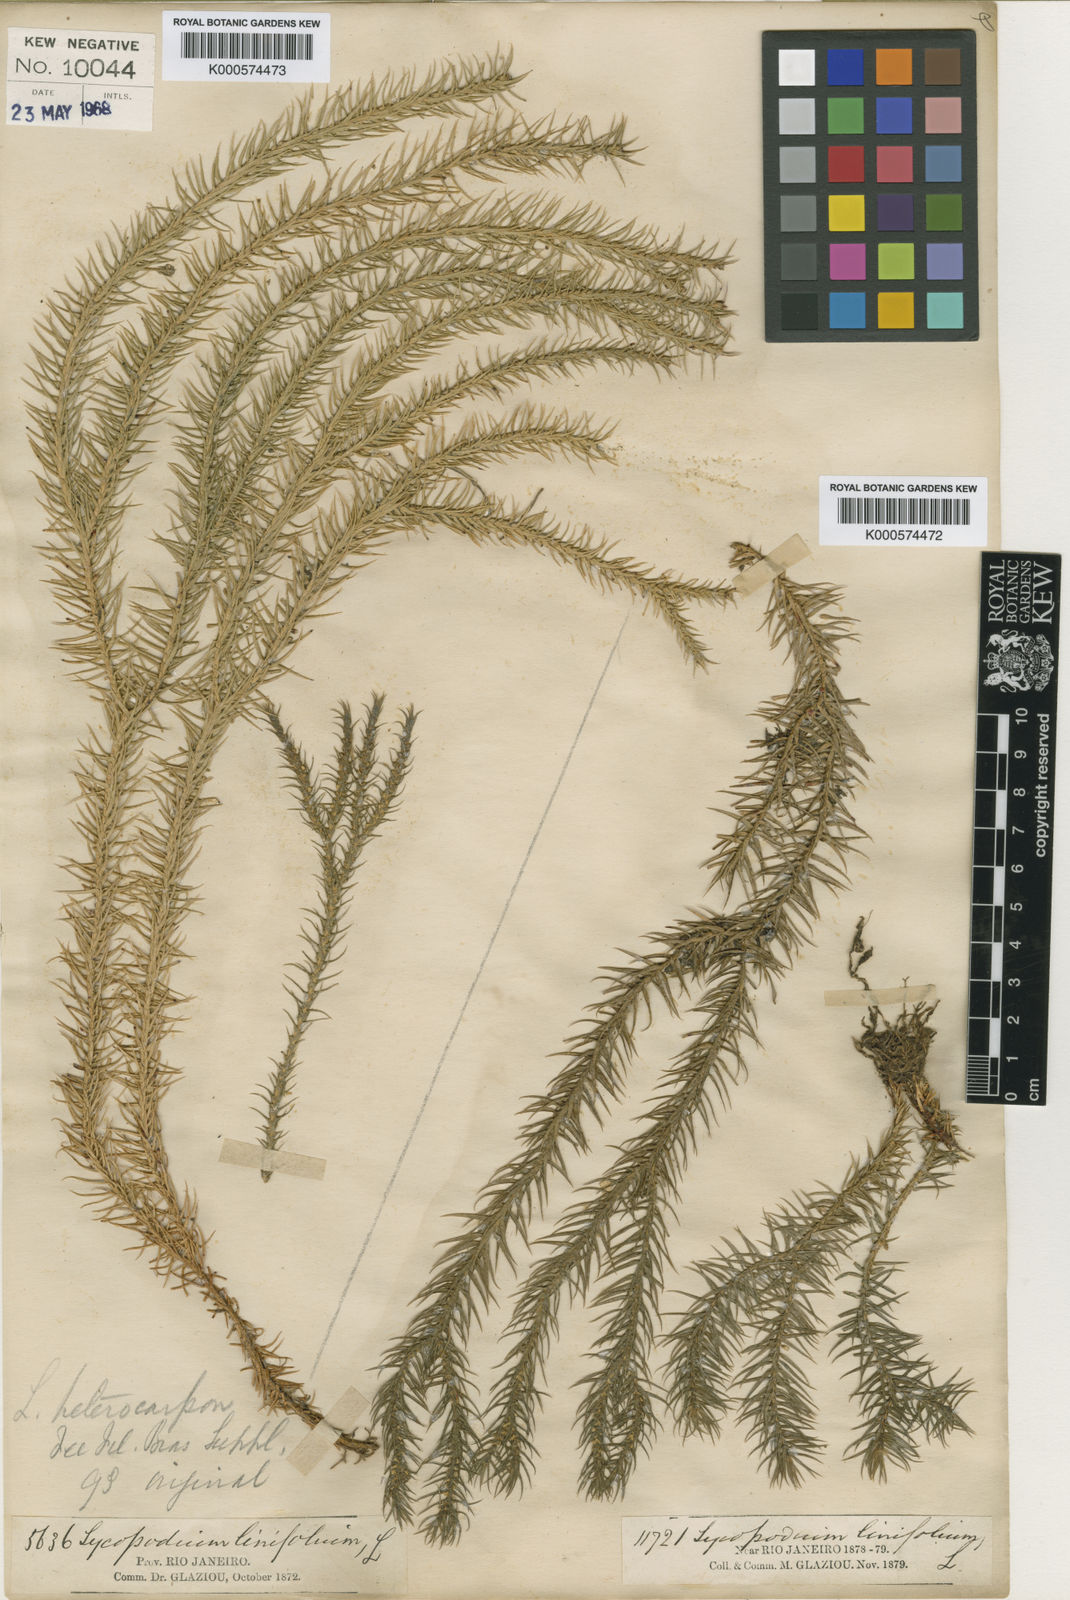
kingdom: Plantae
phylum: Tracheophyta
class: Lycopodiopsida
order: Lycopodiales
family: Lycopodiaceae
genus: Lycopodium
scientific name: Lycopodium
